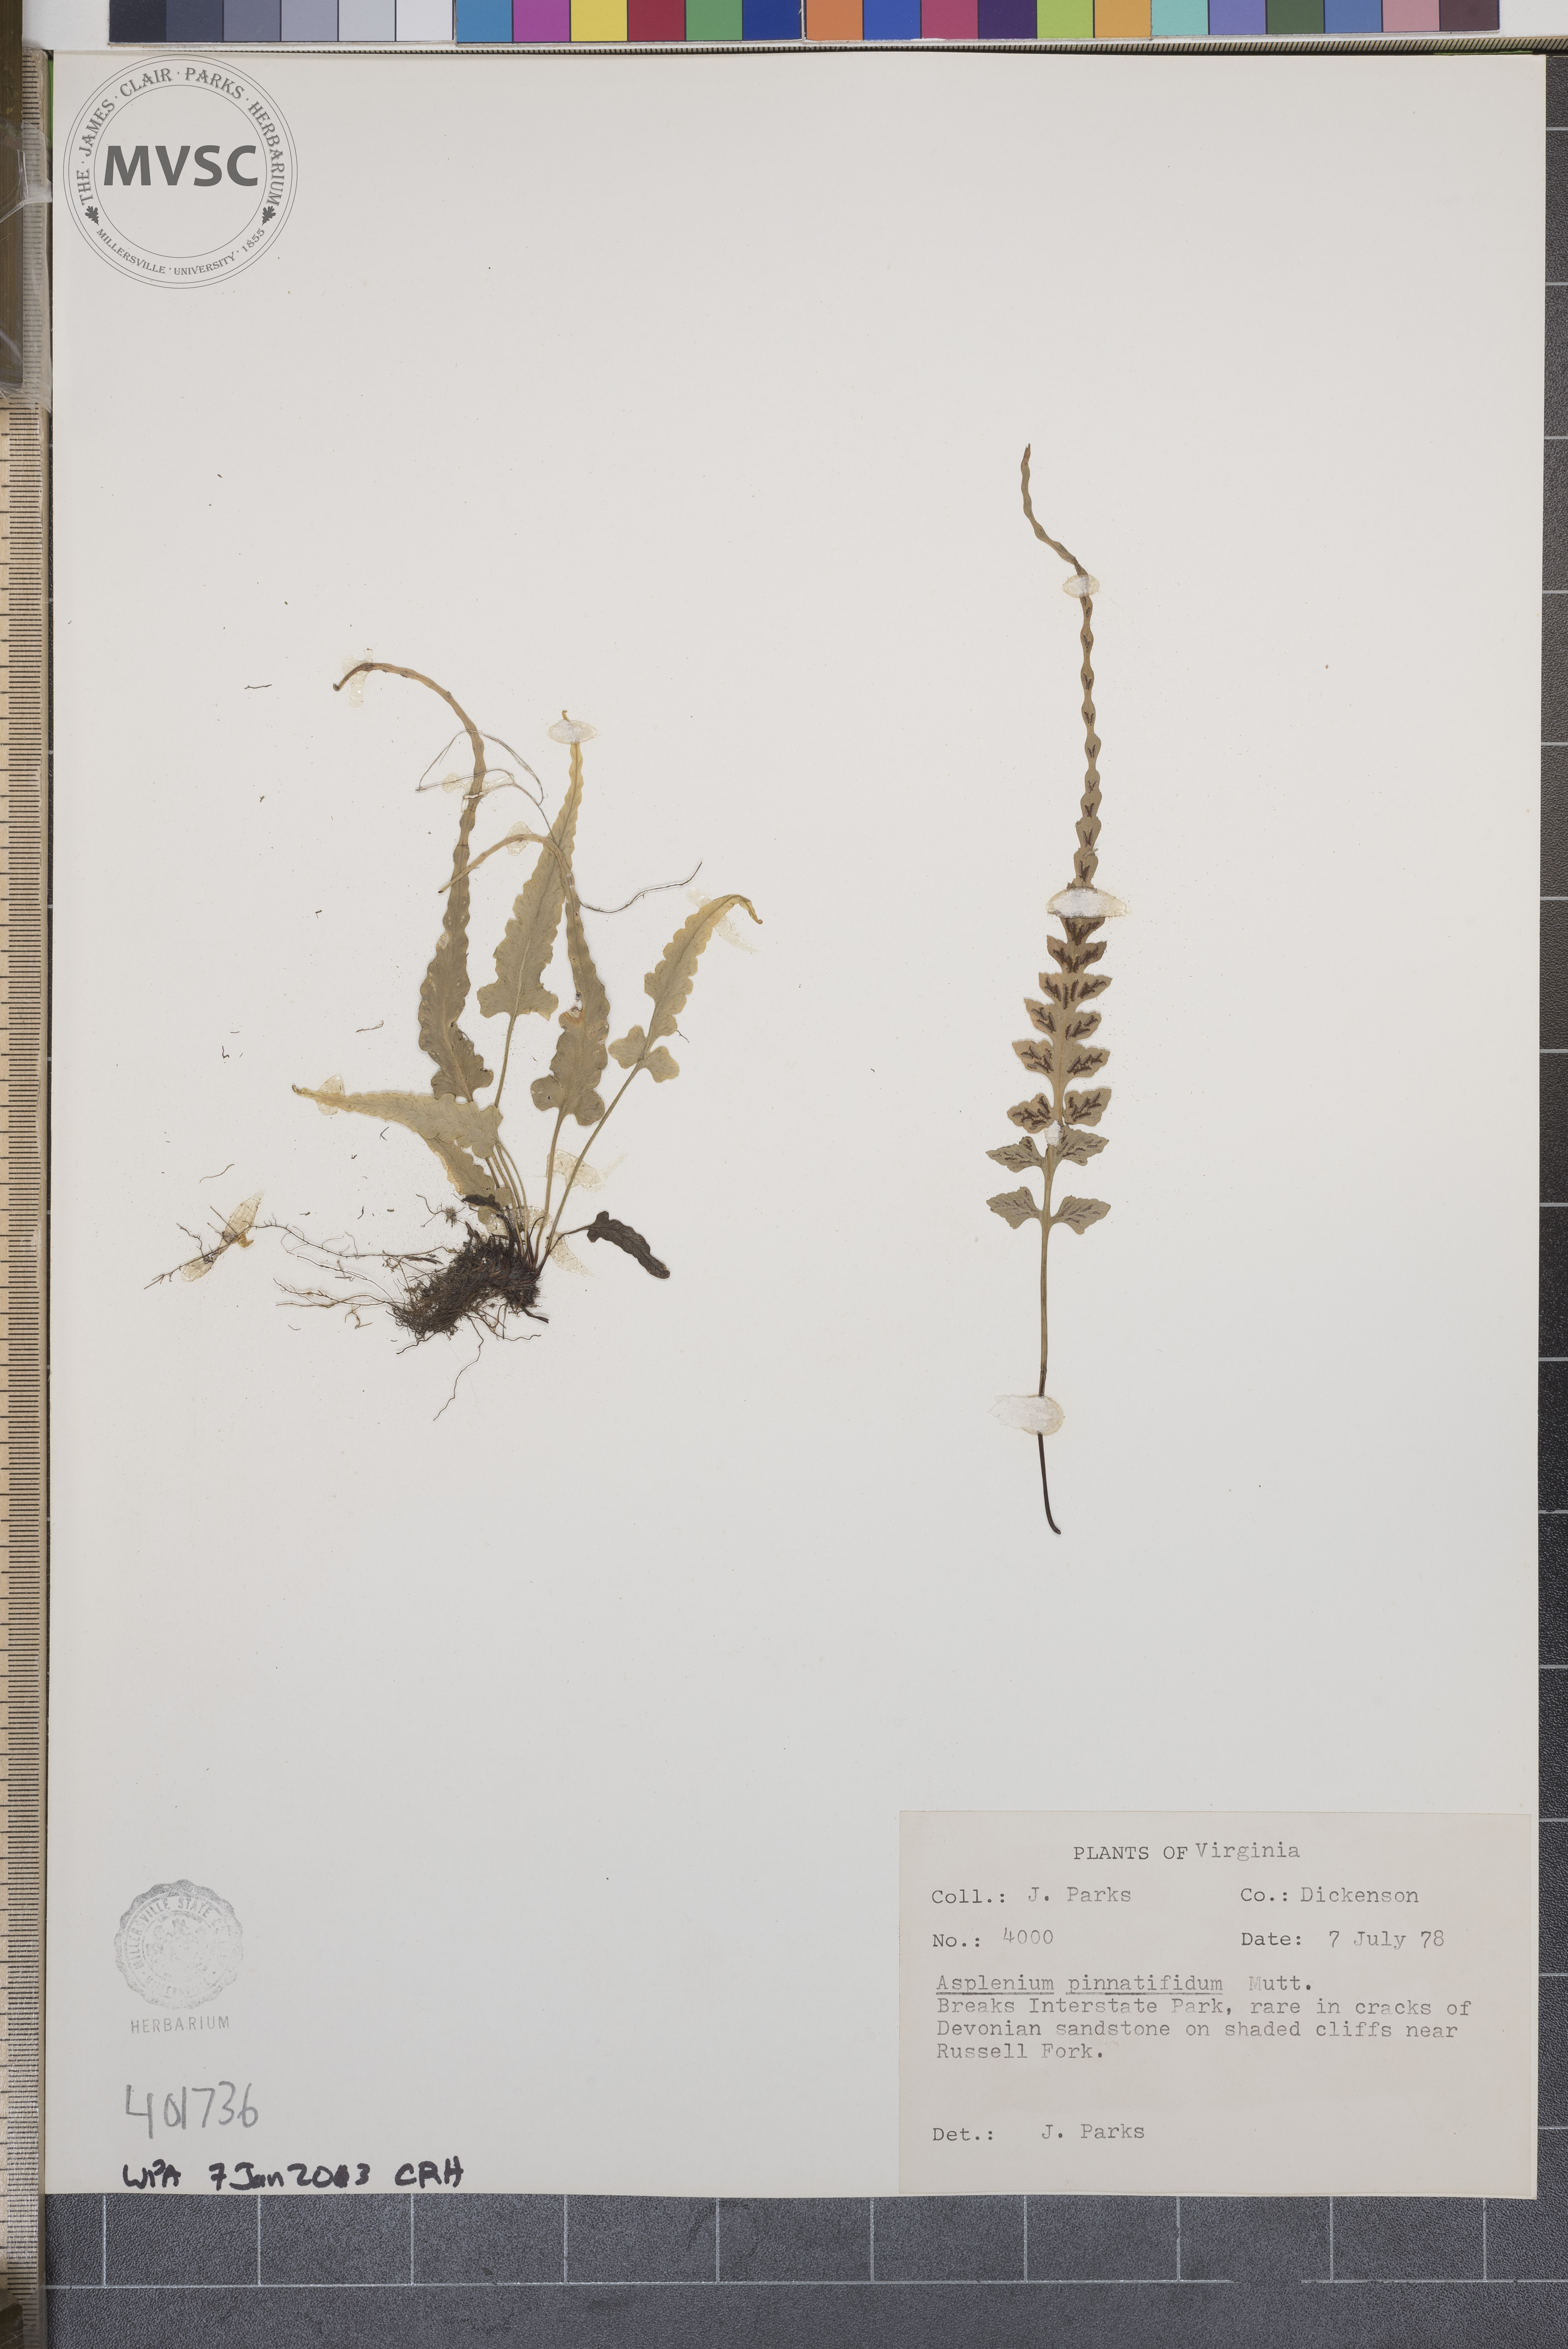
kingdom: Plantae
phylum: Tracheophyta
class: Polypodiopsida
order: Polypodiales
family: Aspleniaceae
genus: Asplenium
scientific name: Asplenium pinnatifidum
